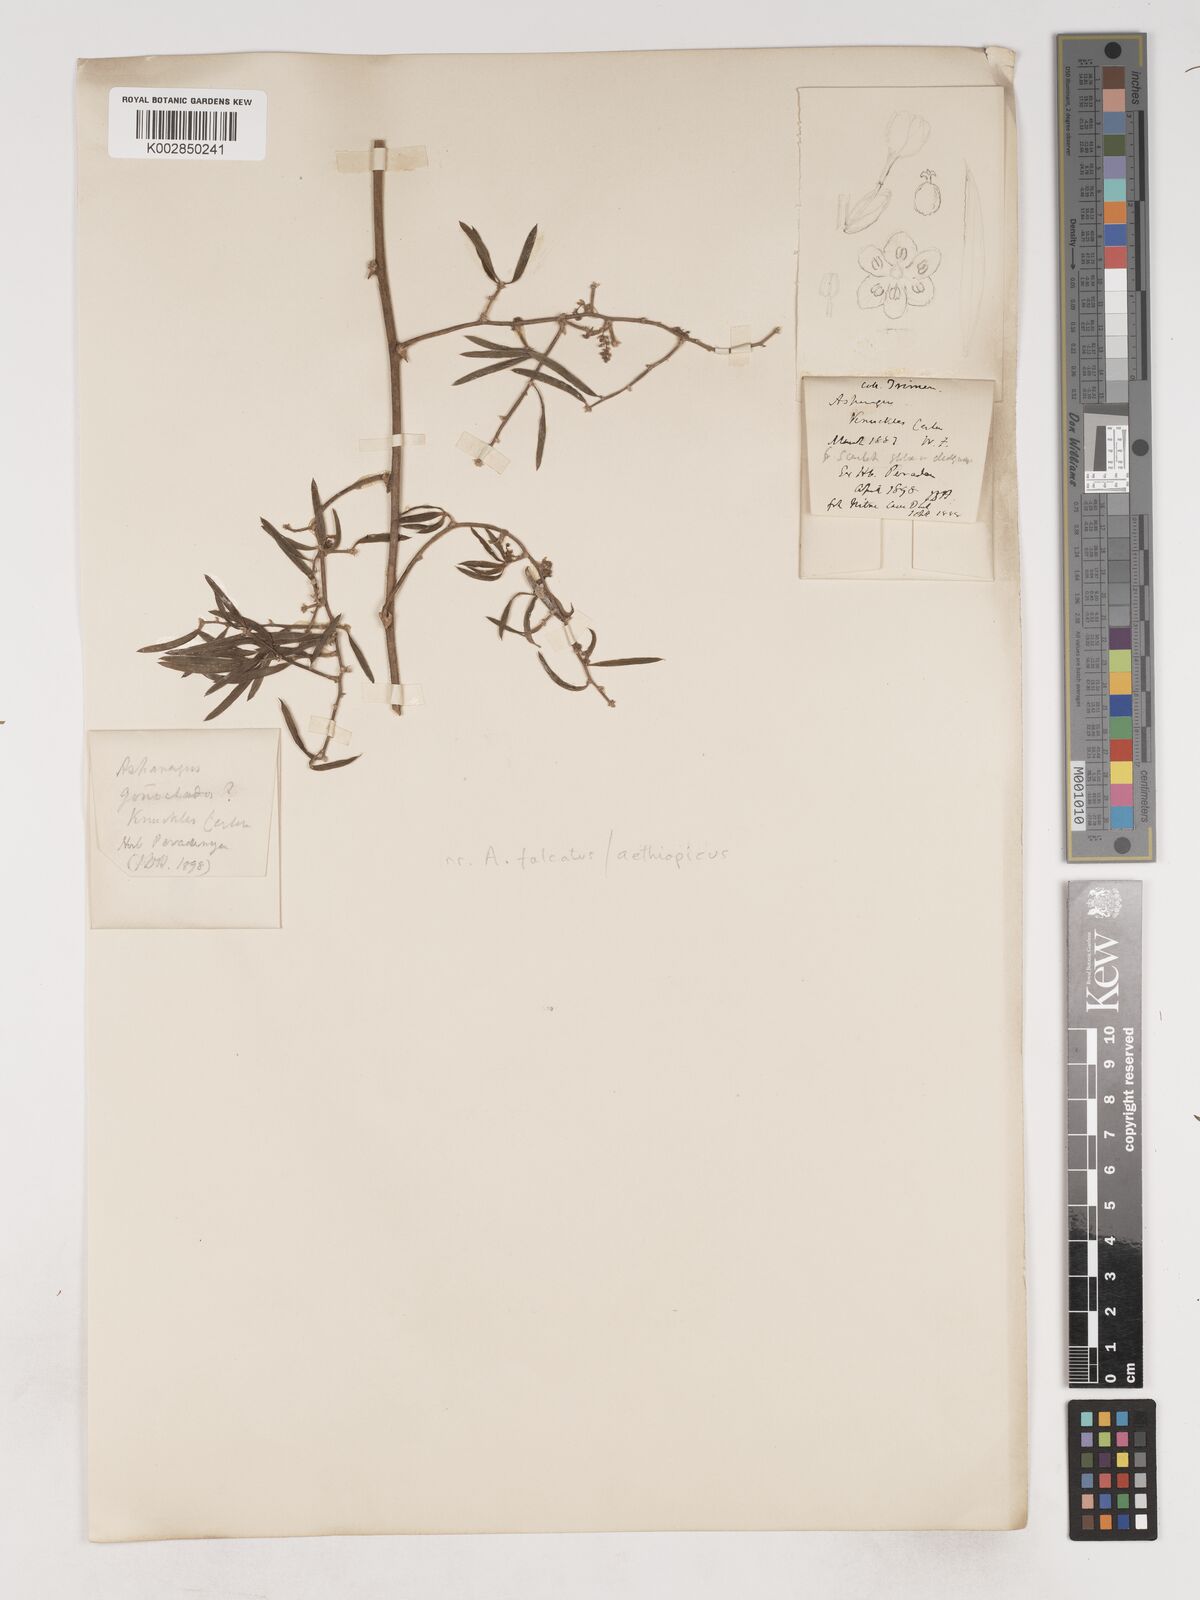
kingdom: Plantae
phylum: Tracheophyta
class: Liliopsida
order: Asparagales
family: Asparagaceae
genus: Asparagus
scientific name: Asparagus gonoclados
